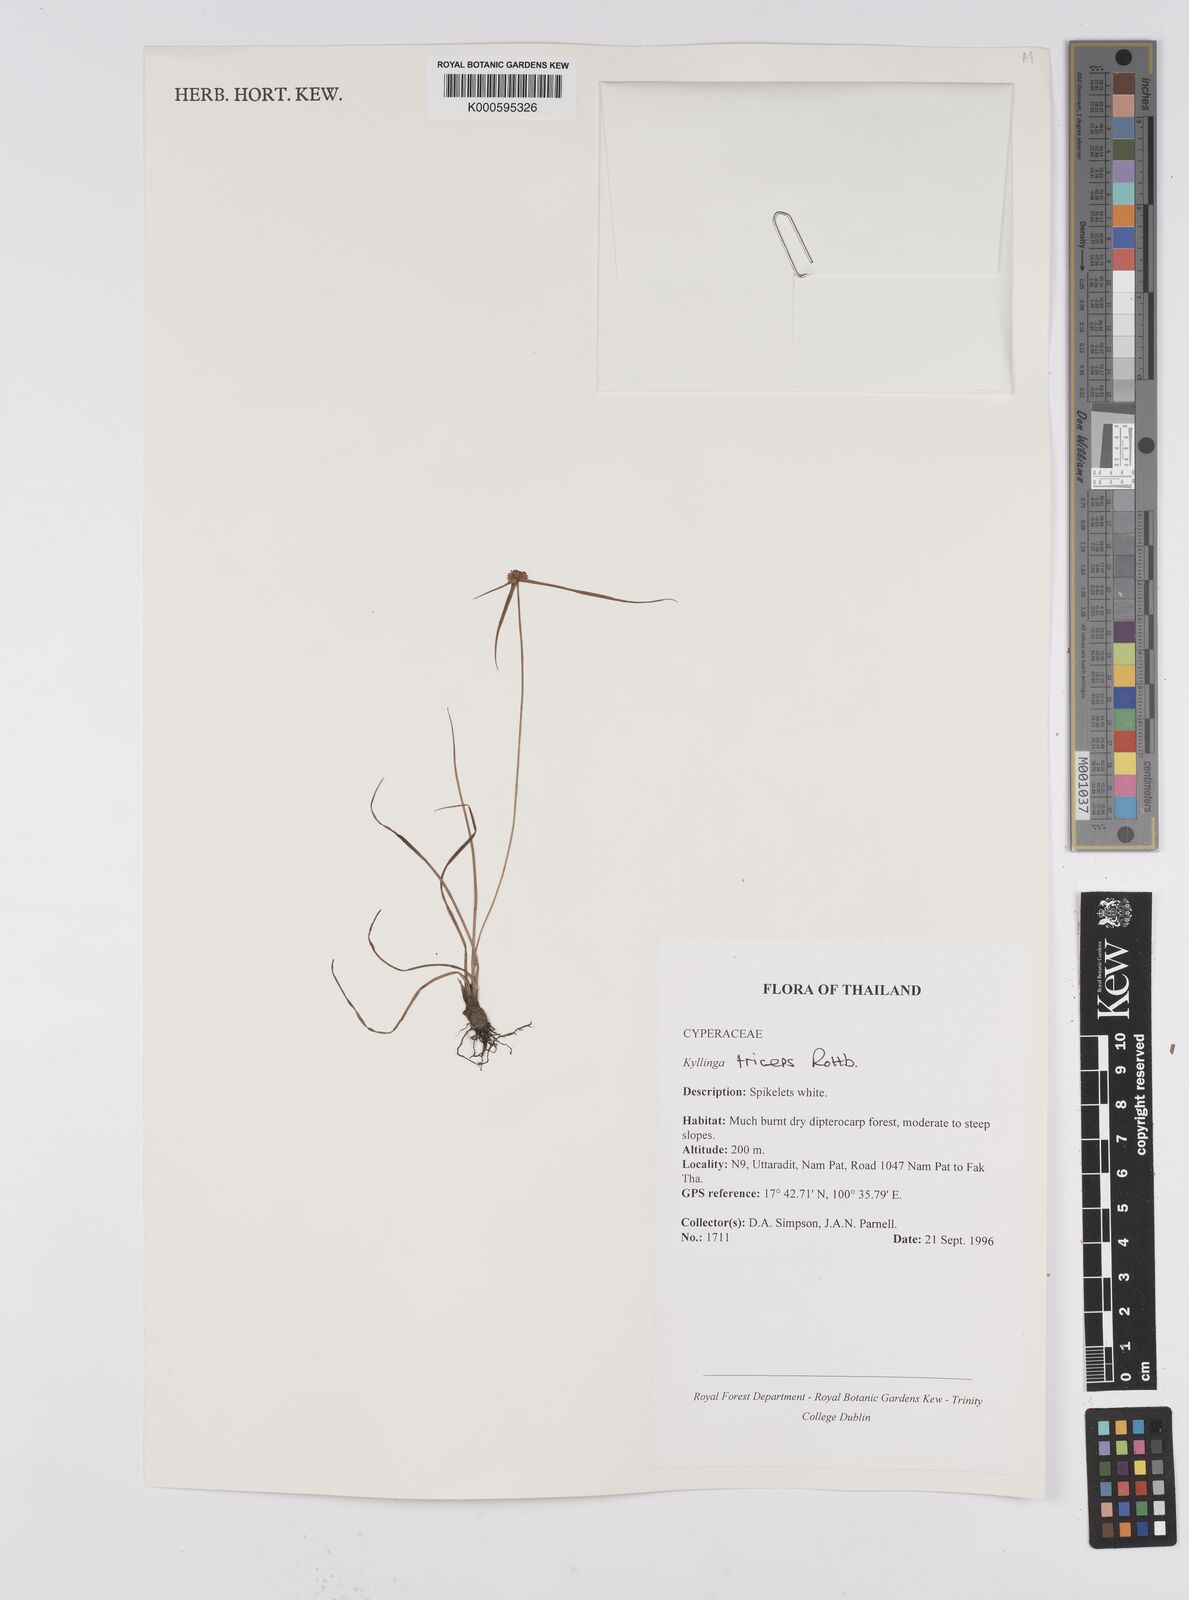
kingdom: Plantae
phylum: Tracheophyta
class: Liliopsida
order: Poales
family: Cyperaceae
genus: Cyperus
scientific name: Cyperus dubius
